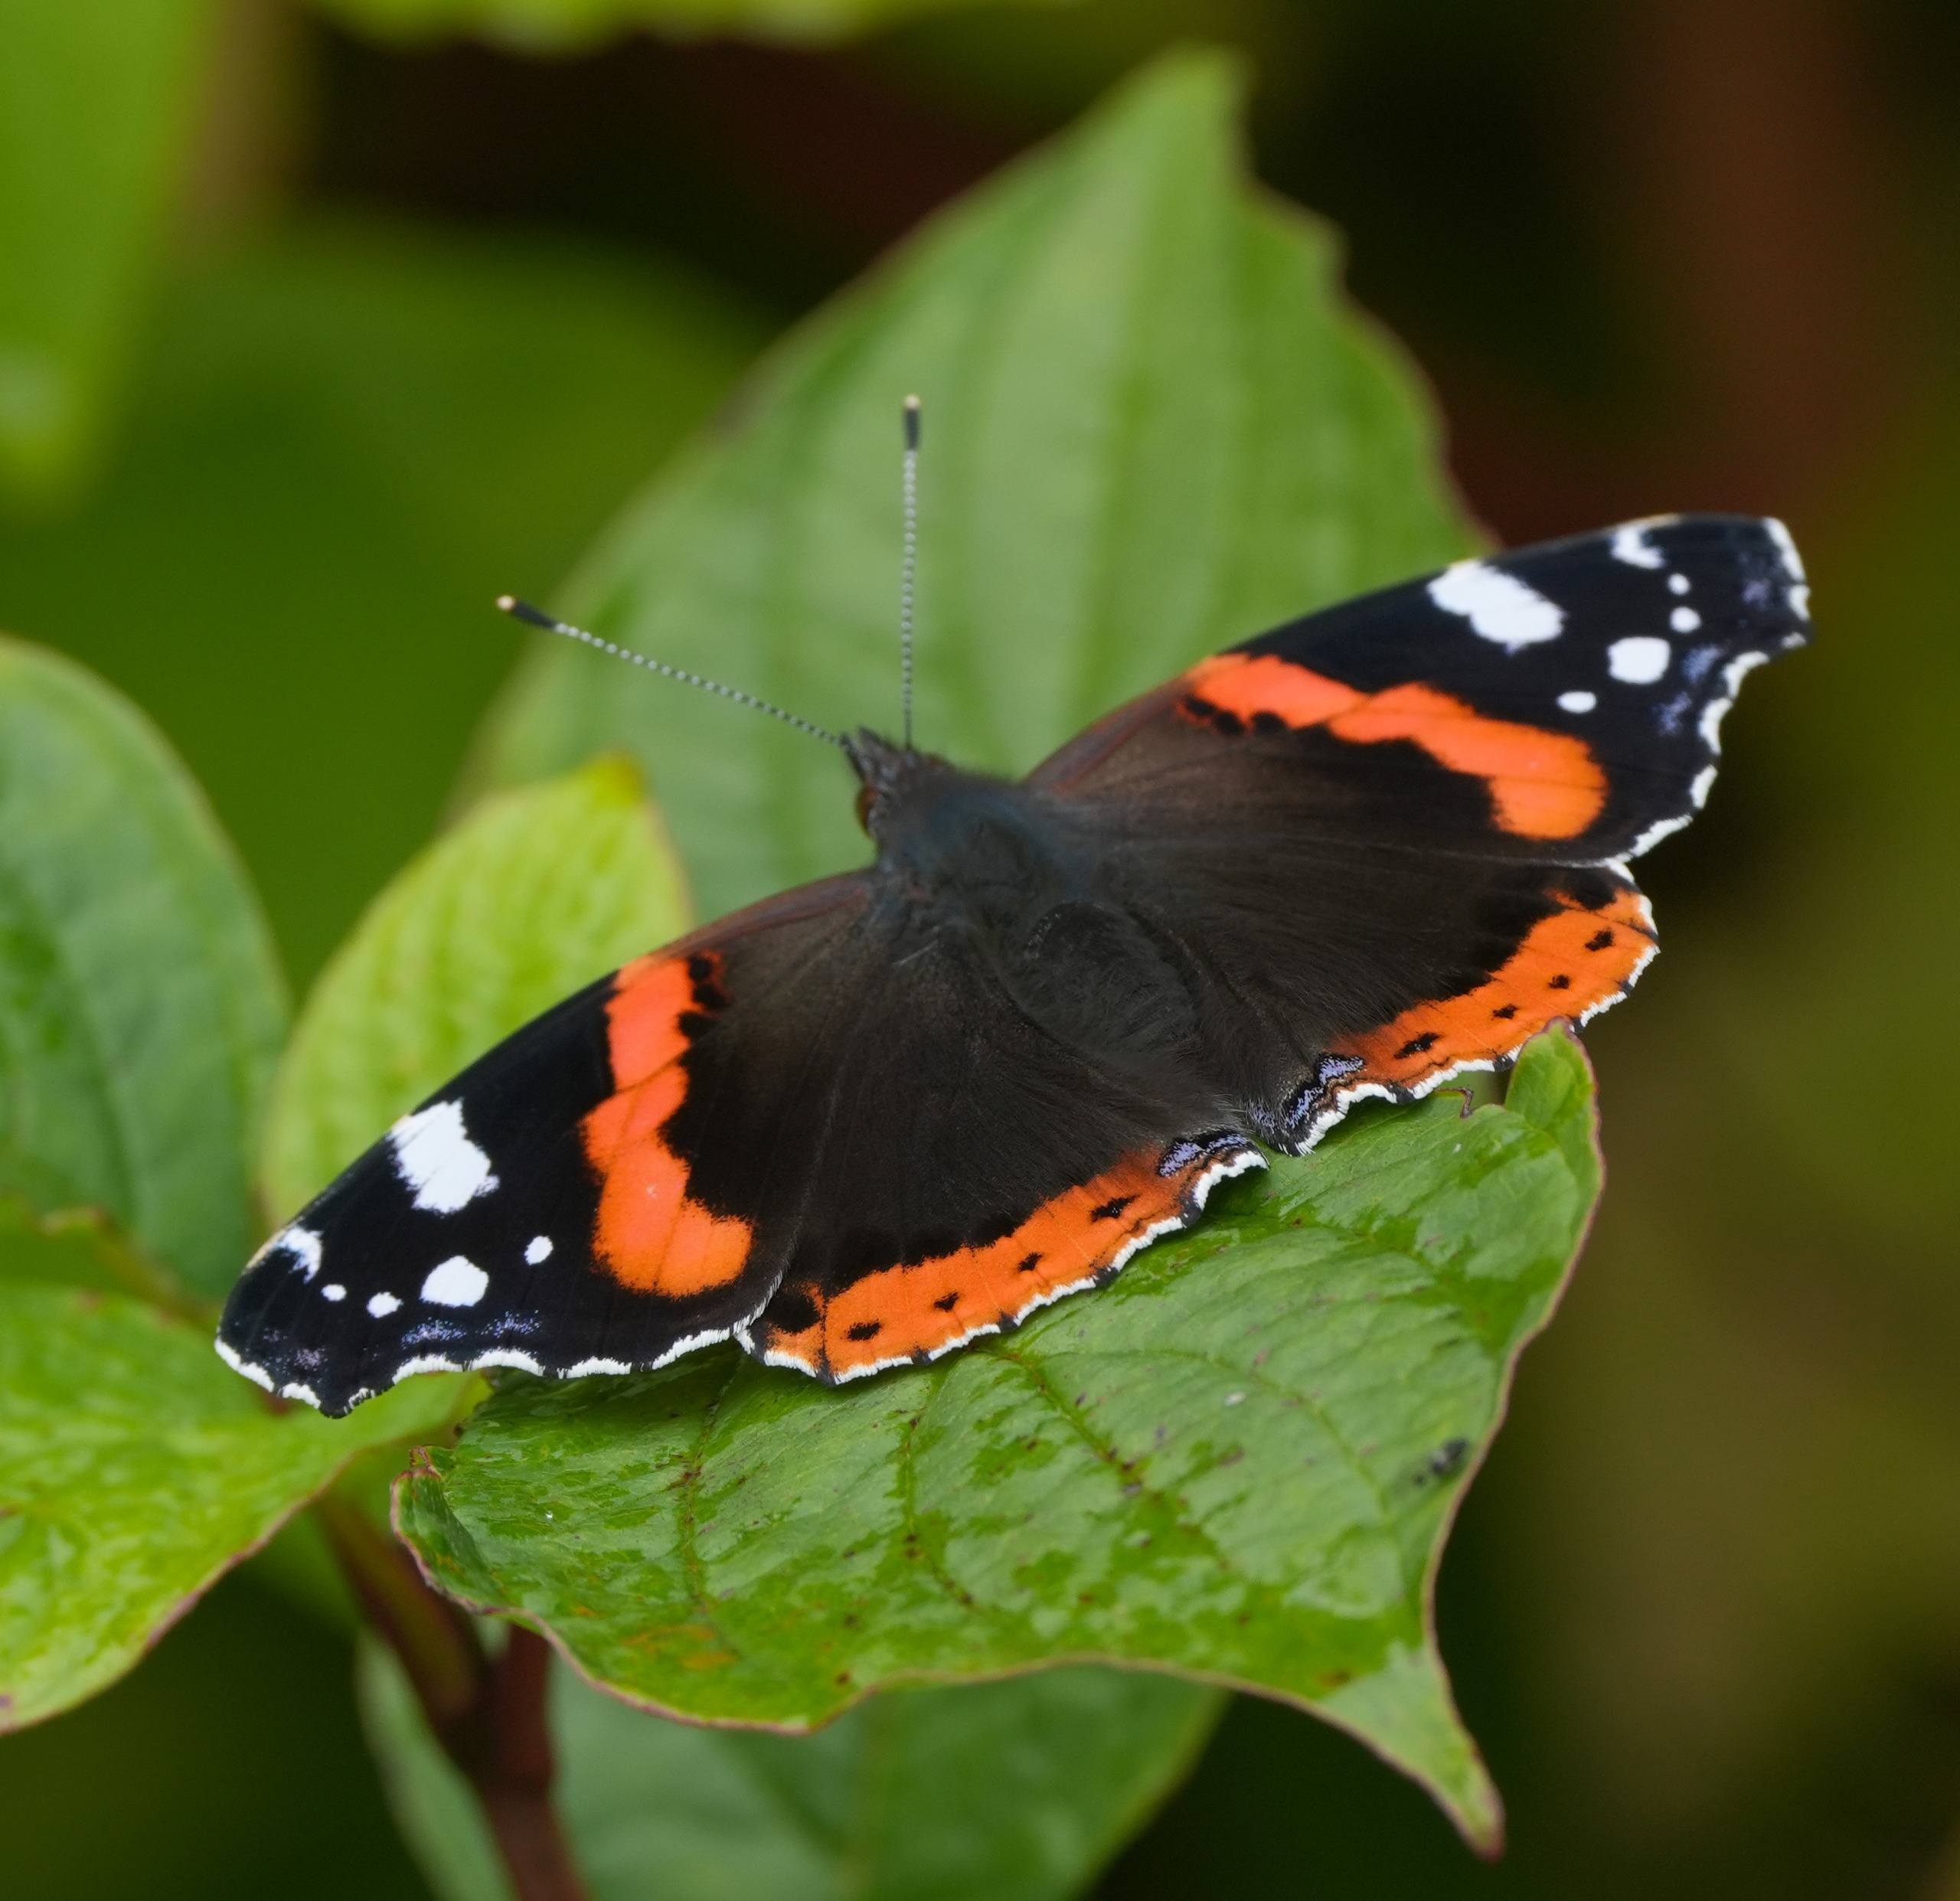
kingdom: Animalia
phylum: Arthropoda
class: Insecta
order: Lepidoptera
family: Nymphalidae
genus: Vanessa
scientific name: Vanessa atalanta
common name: Admiral
